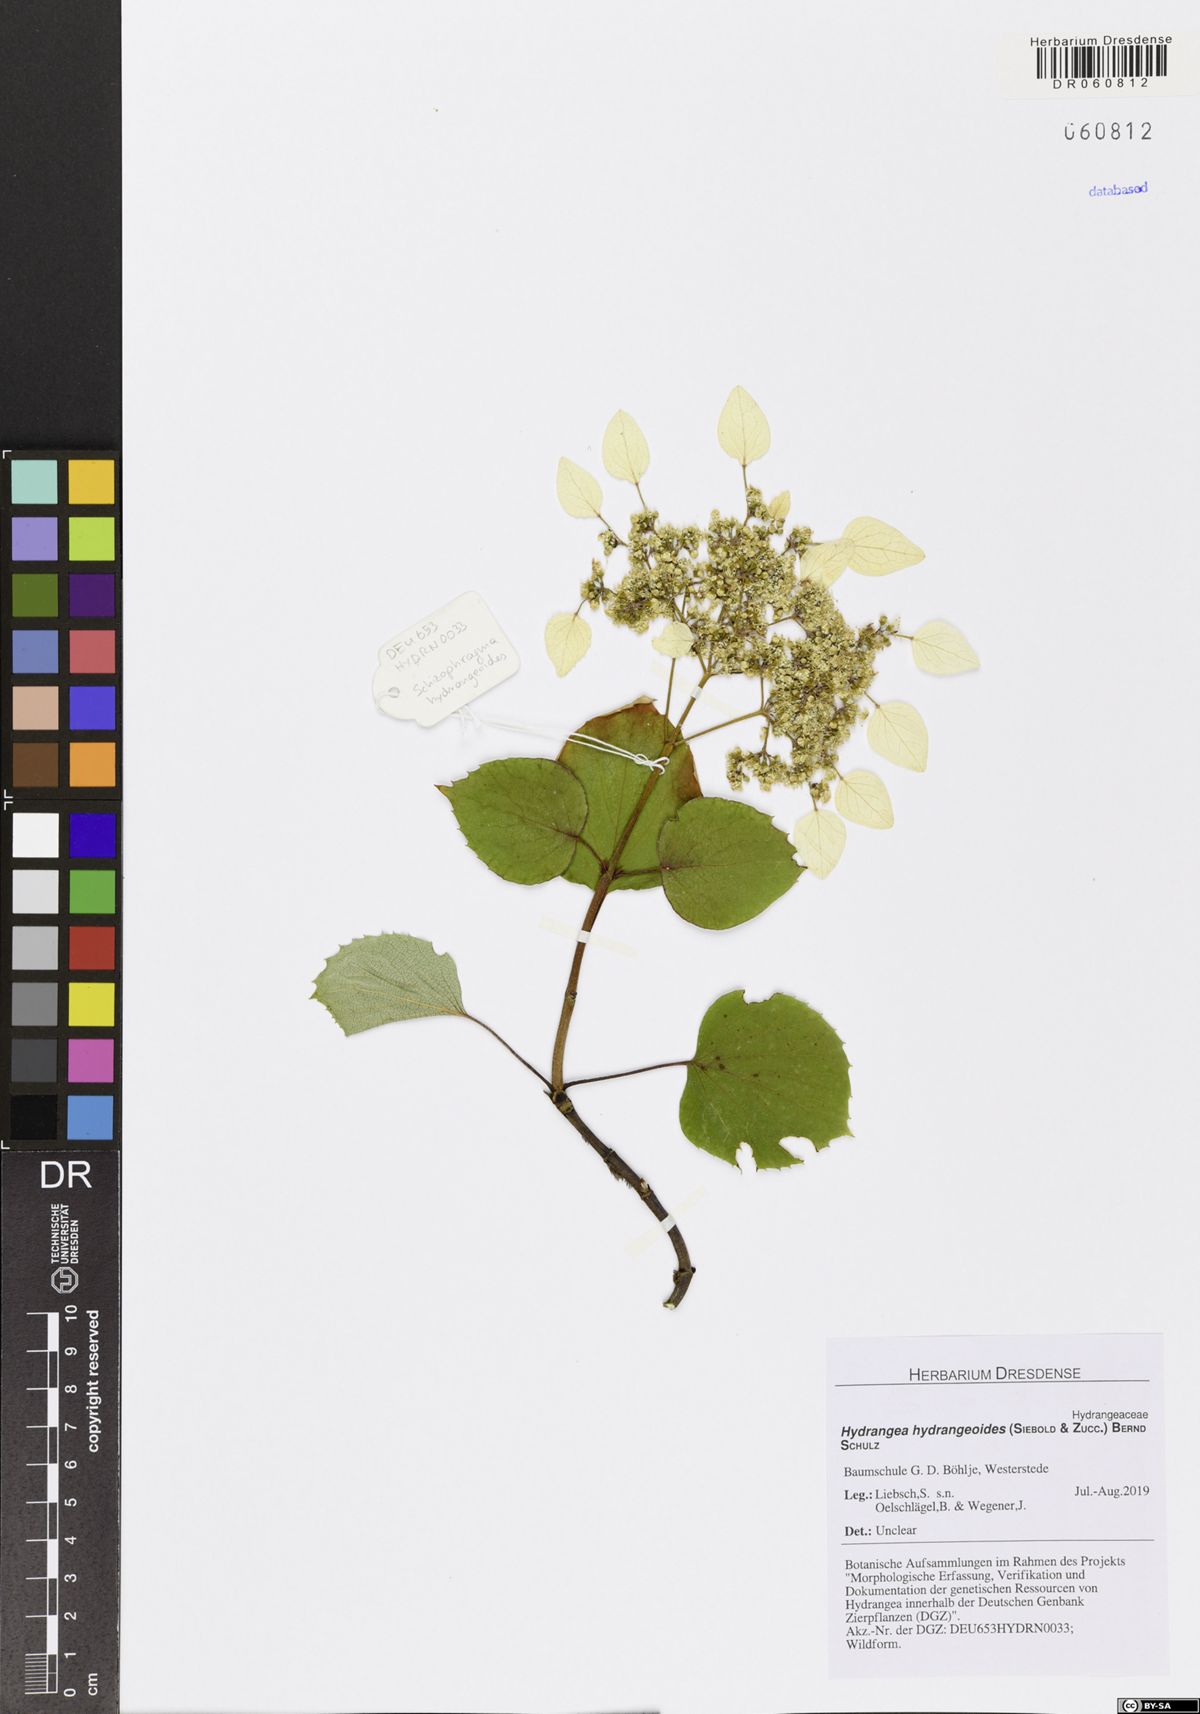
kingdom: Plantae
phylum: Tracheophyta
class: Magnoliopsida
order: Cornales
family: Hydrangeaceae
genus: Hydrangea
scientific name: Hydrangea hydrangeoides
